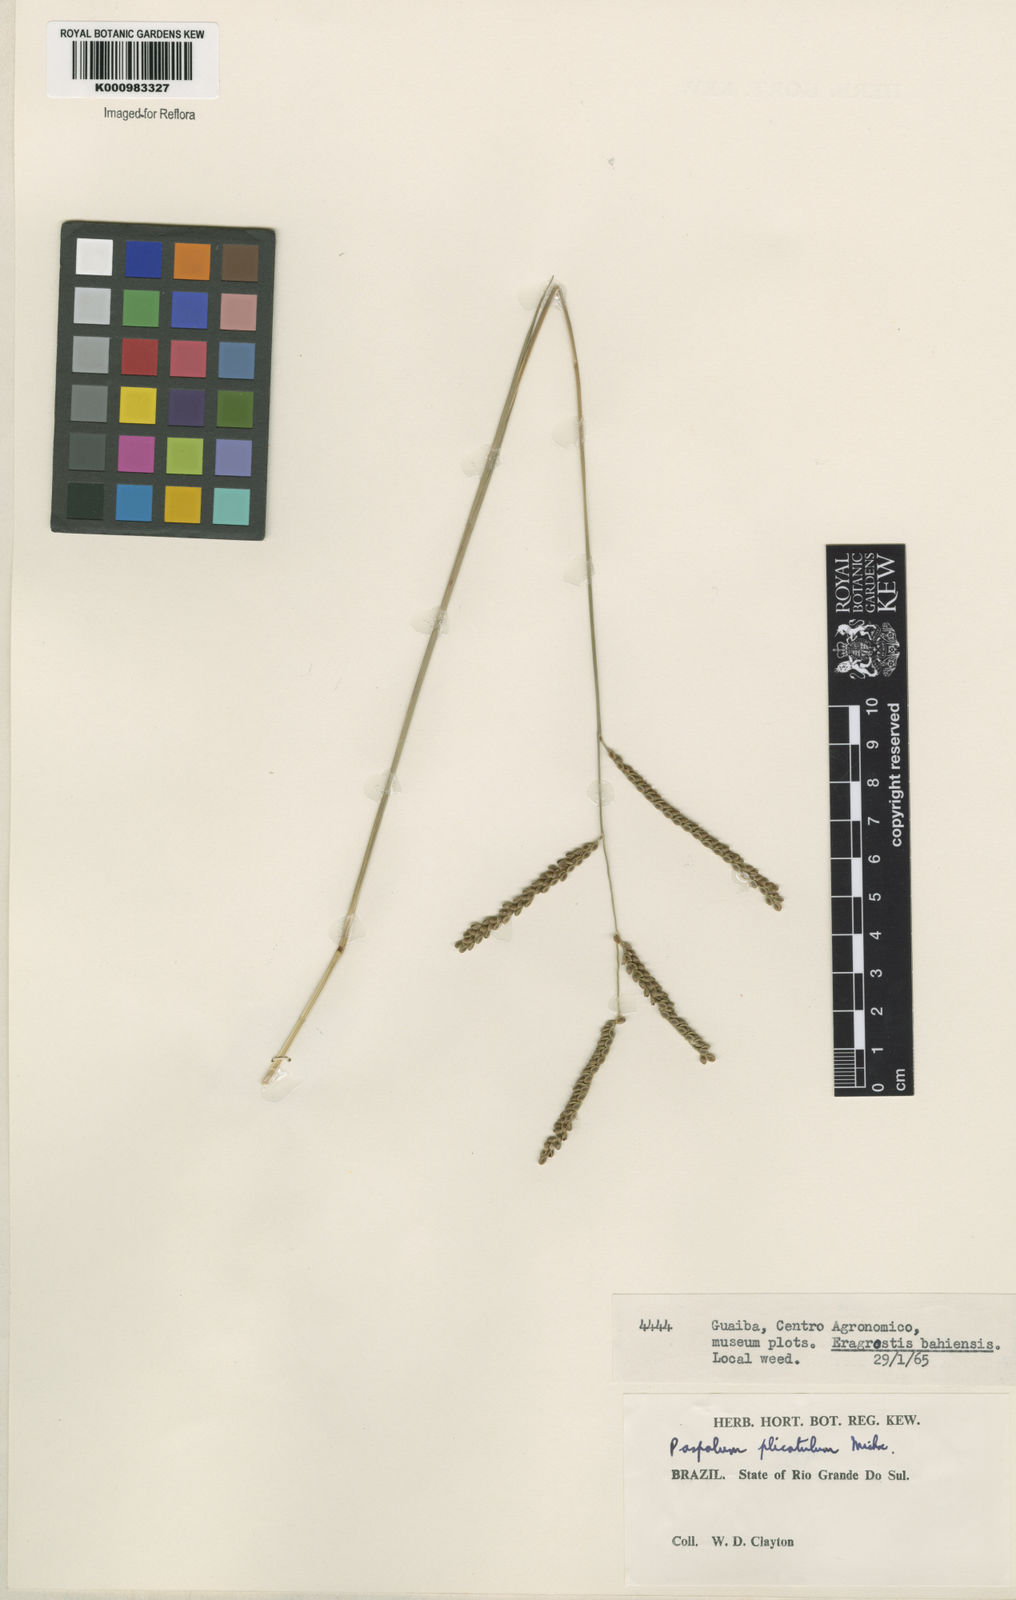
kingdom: Plantae
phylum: Tracheophyta
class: Liliopsida
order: Poales
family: Poaceae
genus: Paspalum
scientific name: Paspalum plicatulum
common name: Top paspalum
